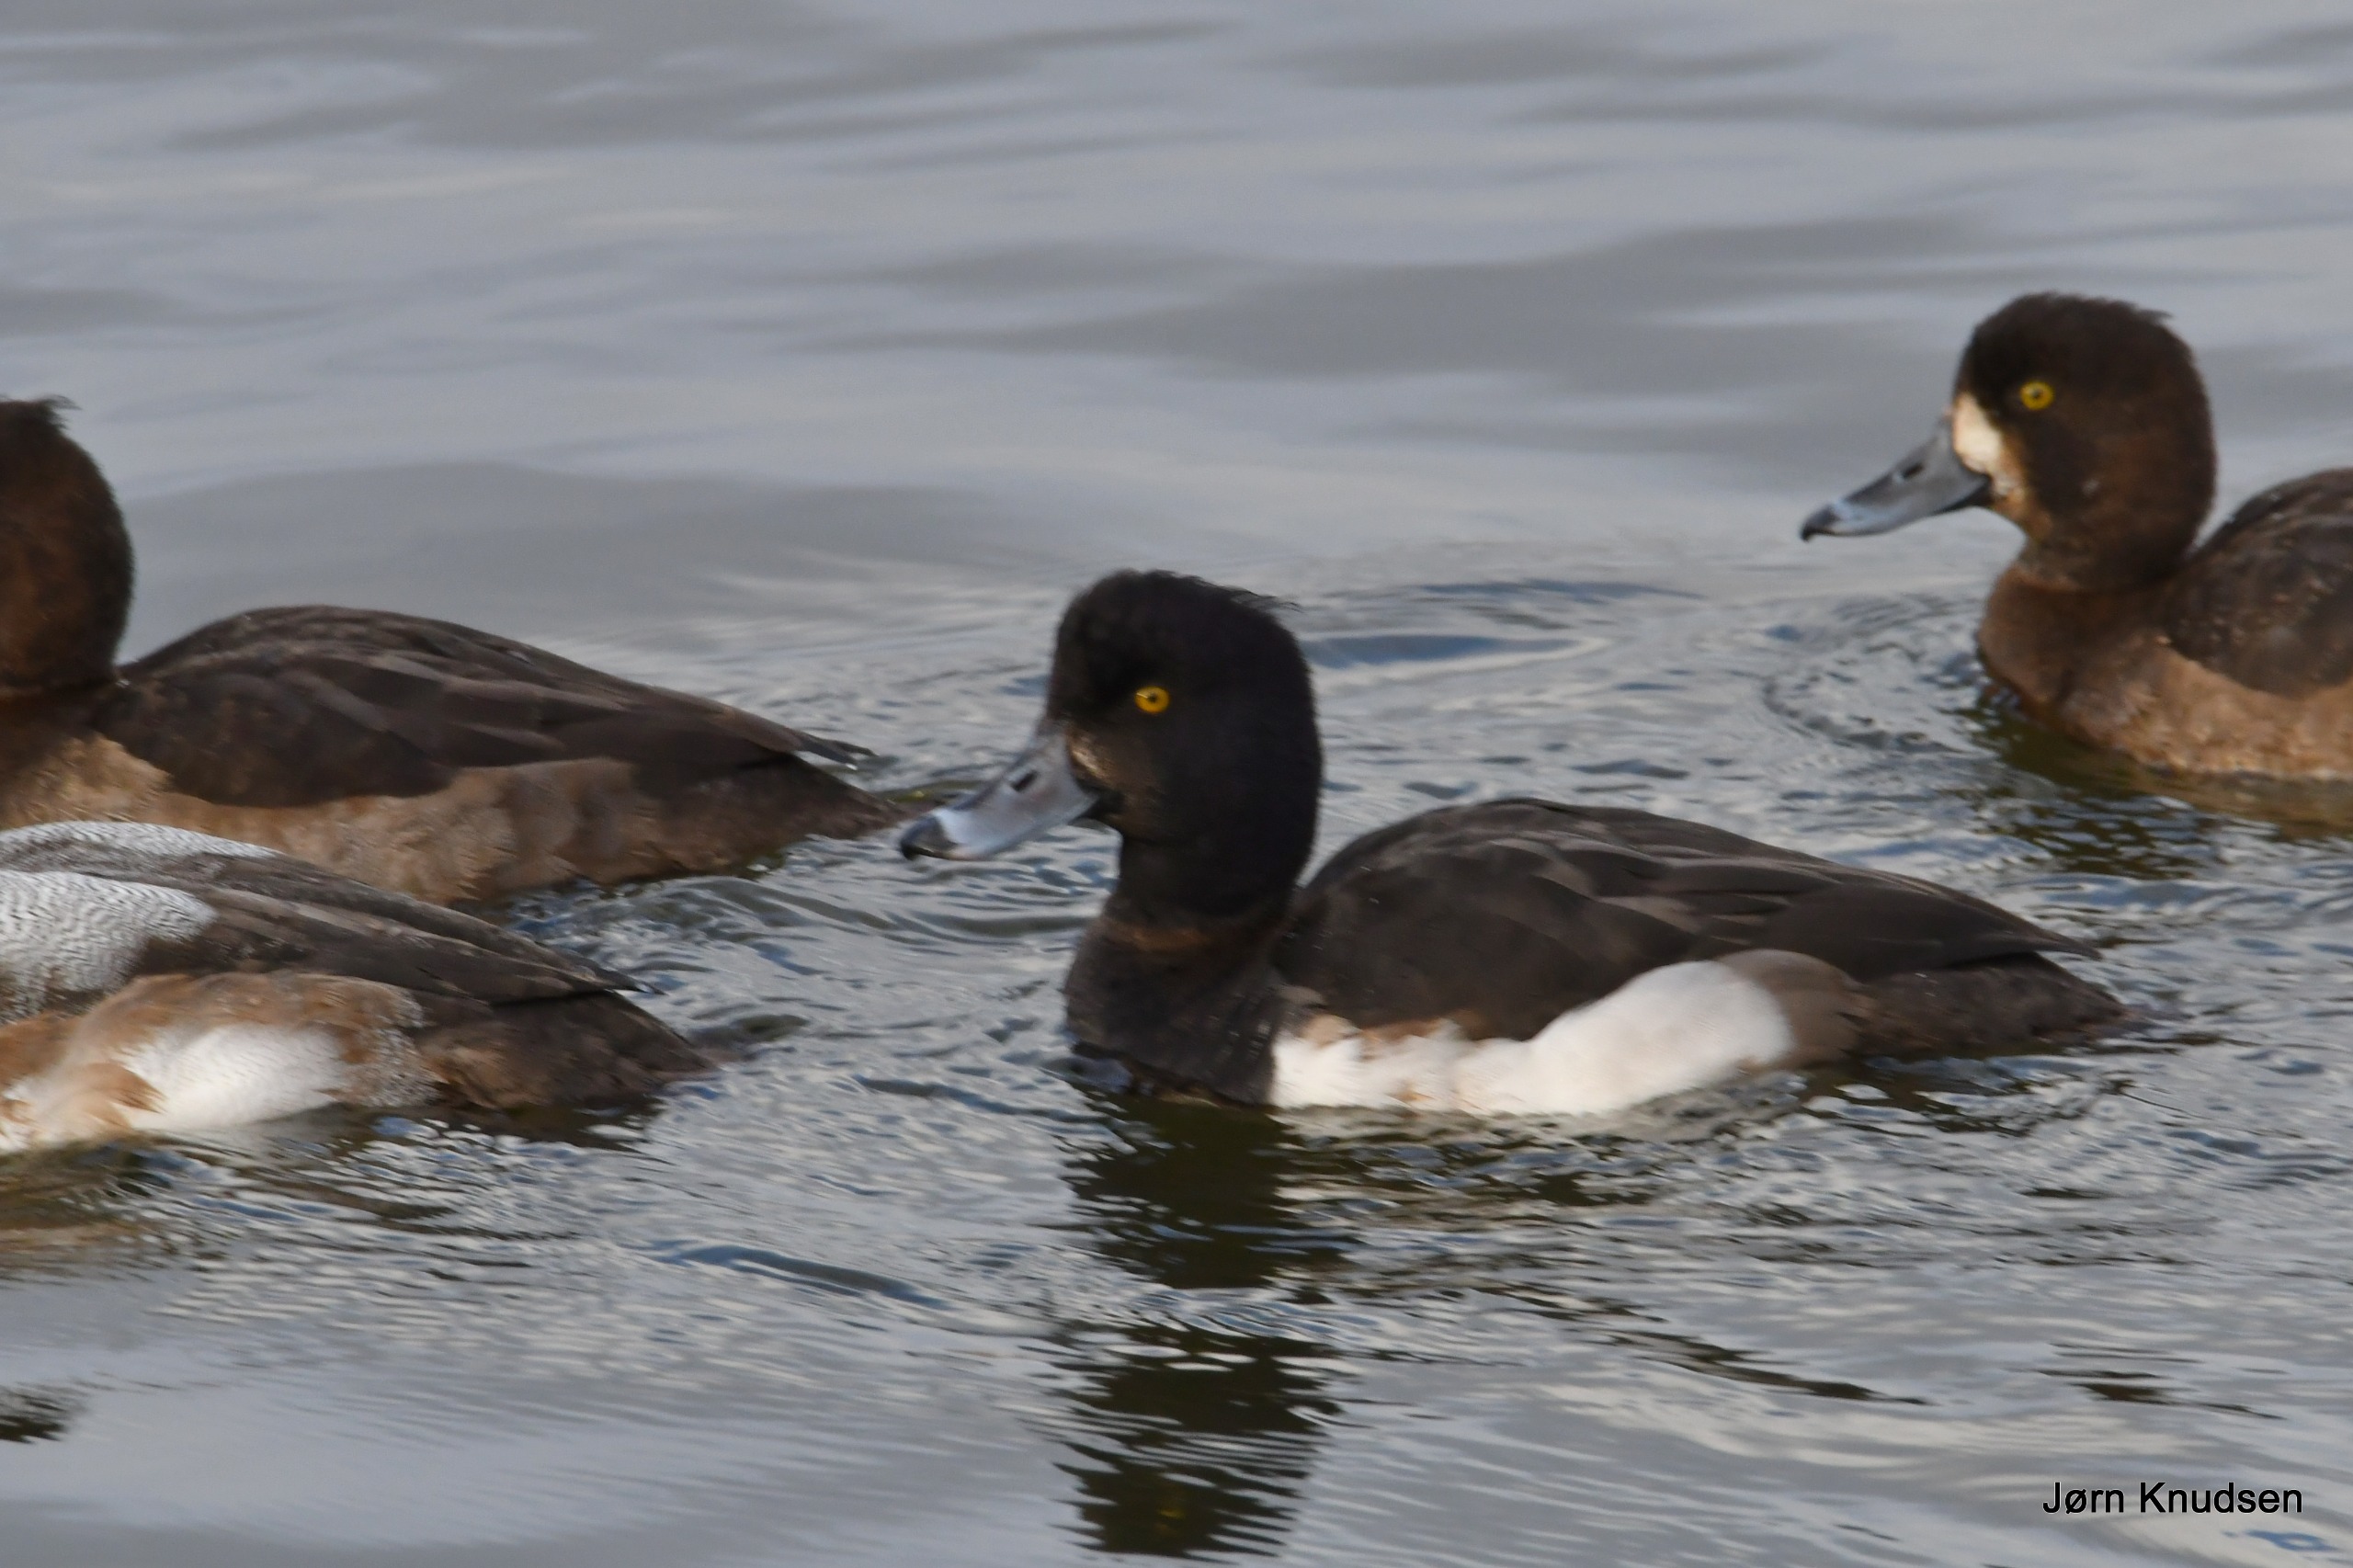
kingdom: Animalia
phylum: Chordata
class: Aves
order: Anseriformes
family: Anatidae
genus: Aythya
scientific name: Aythya fuligula
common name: Troldand
